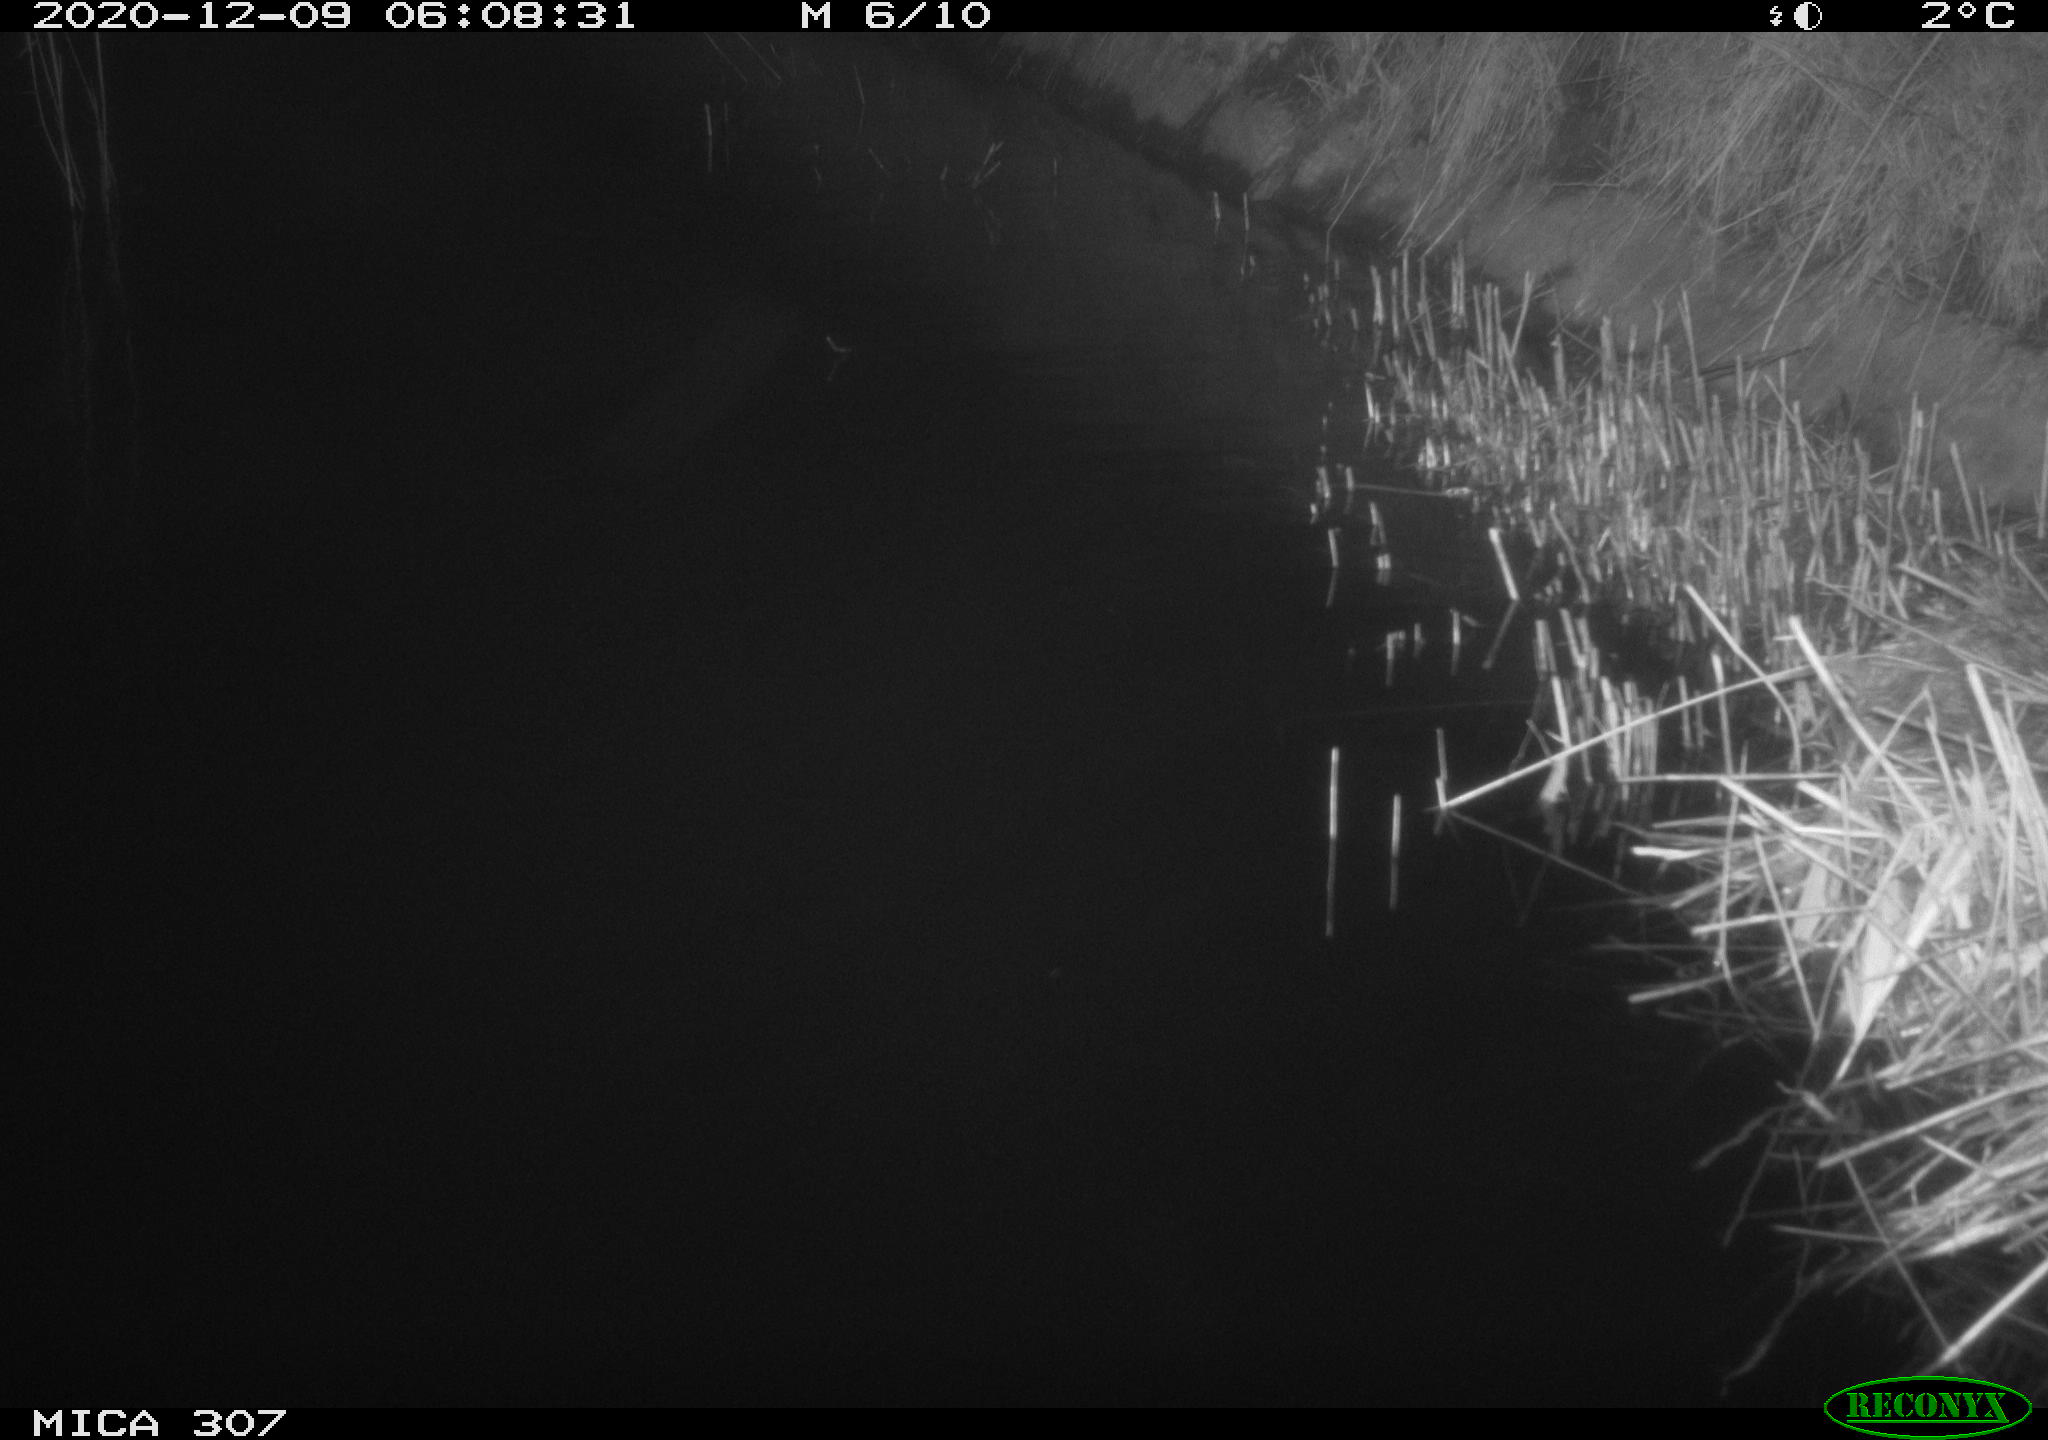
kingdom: Animalia
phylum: Chordata
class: Mammalia
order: Rodentia
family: Muridae
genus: Rattus
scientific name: Rattus norvegicus
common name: Brown rat
